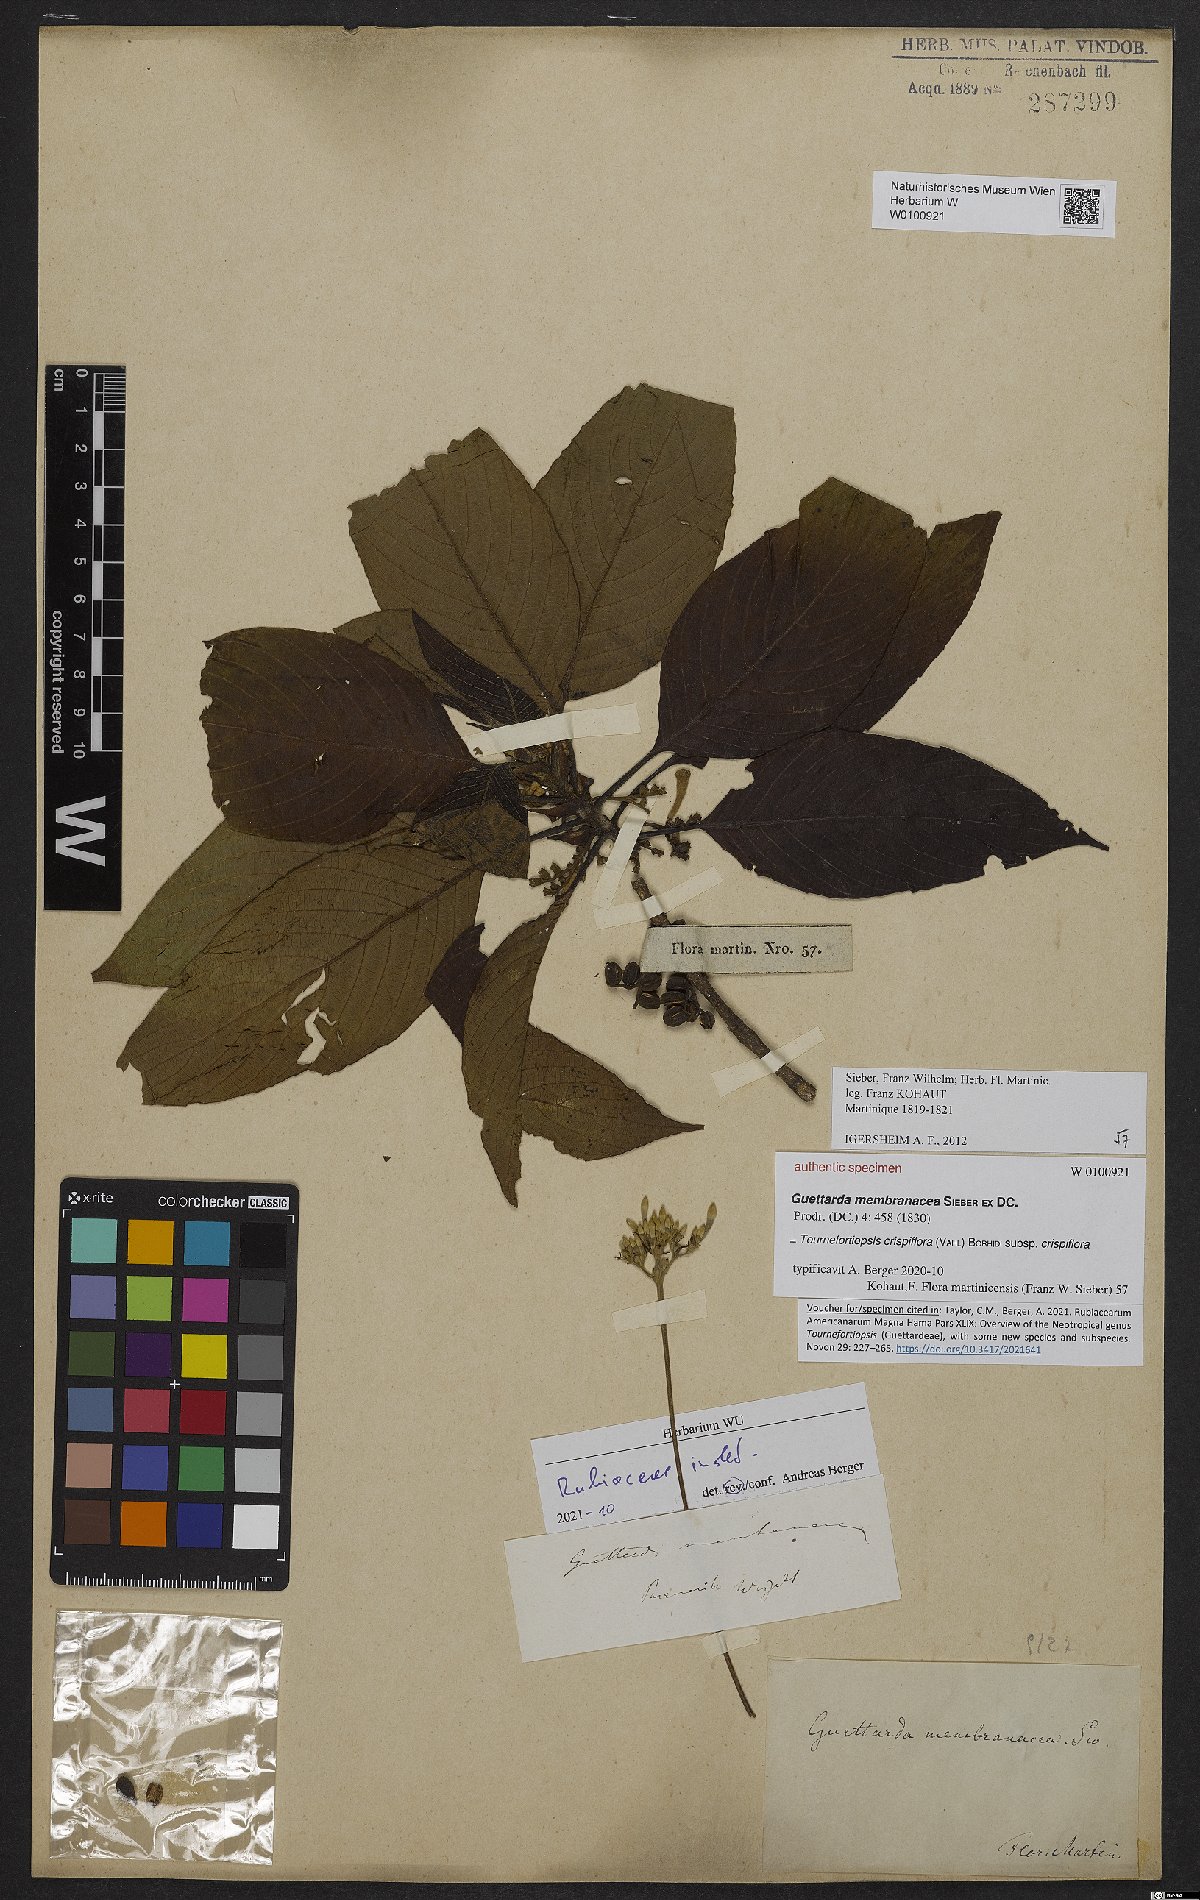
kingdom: Plantae
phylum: Tracheophyta
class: Magnoliopsida
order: Gentianales
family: Rubiaceae
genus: Tournefortiopsis
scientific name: Tournefortiopsis crispiflora
